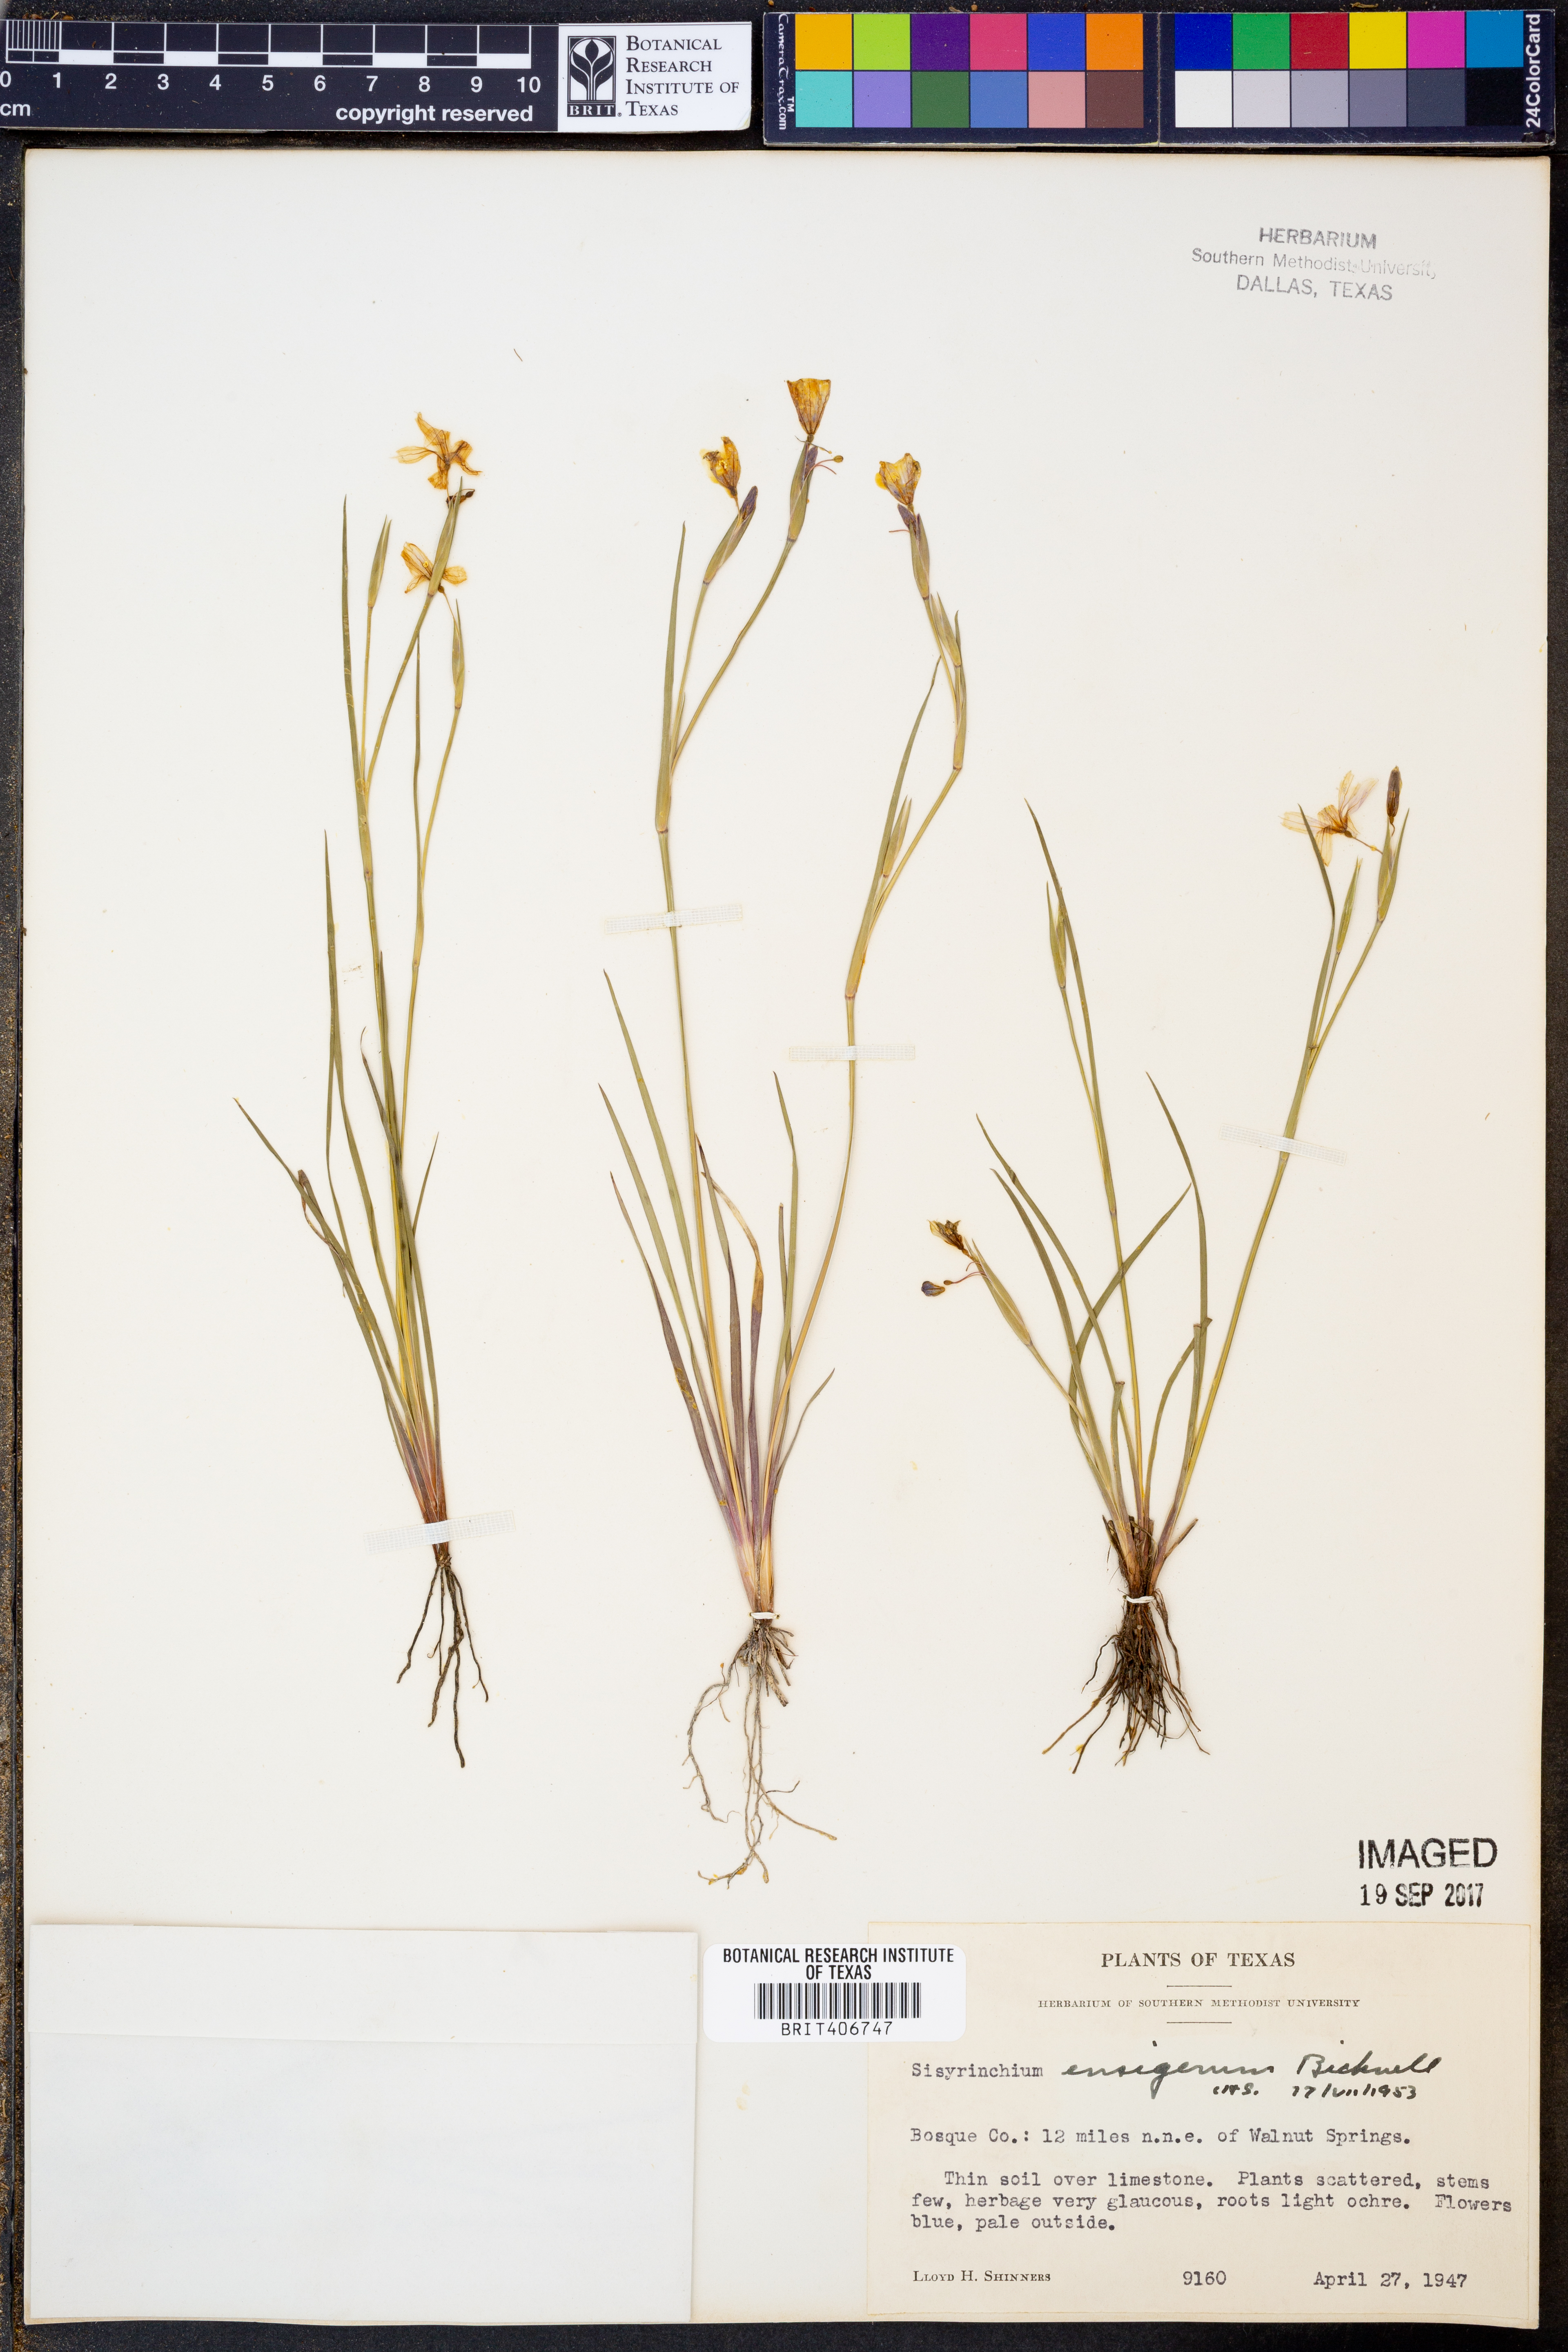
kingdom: Plantae
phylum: Tracheophyta
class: Liliopsida
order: Asparagales
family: Iridaceae
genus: Sisyrinchium
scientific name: Sisyrinchium ensigerum
